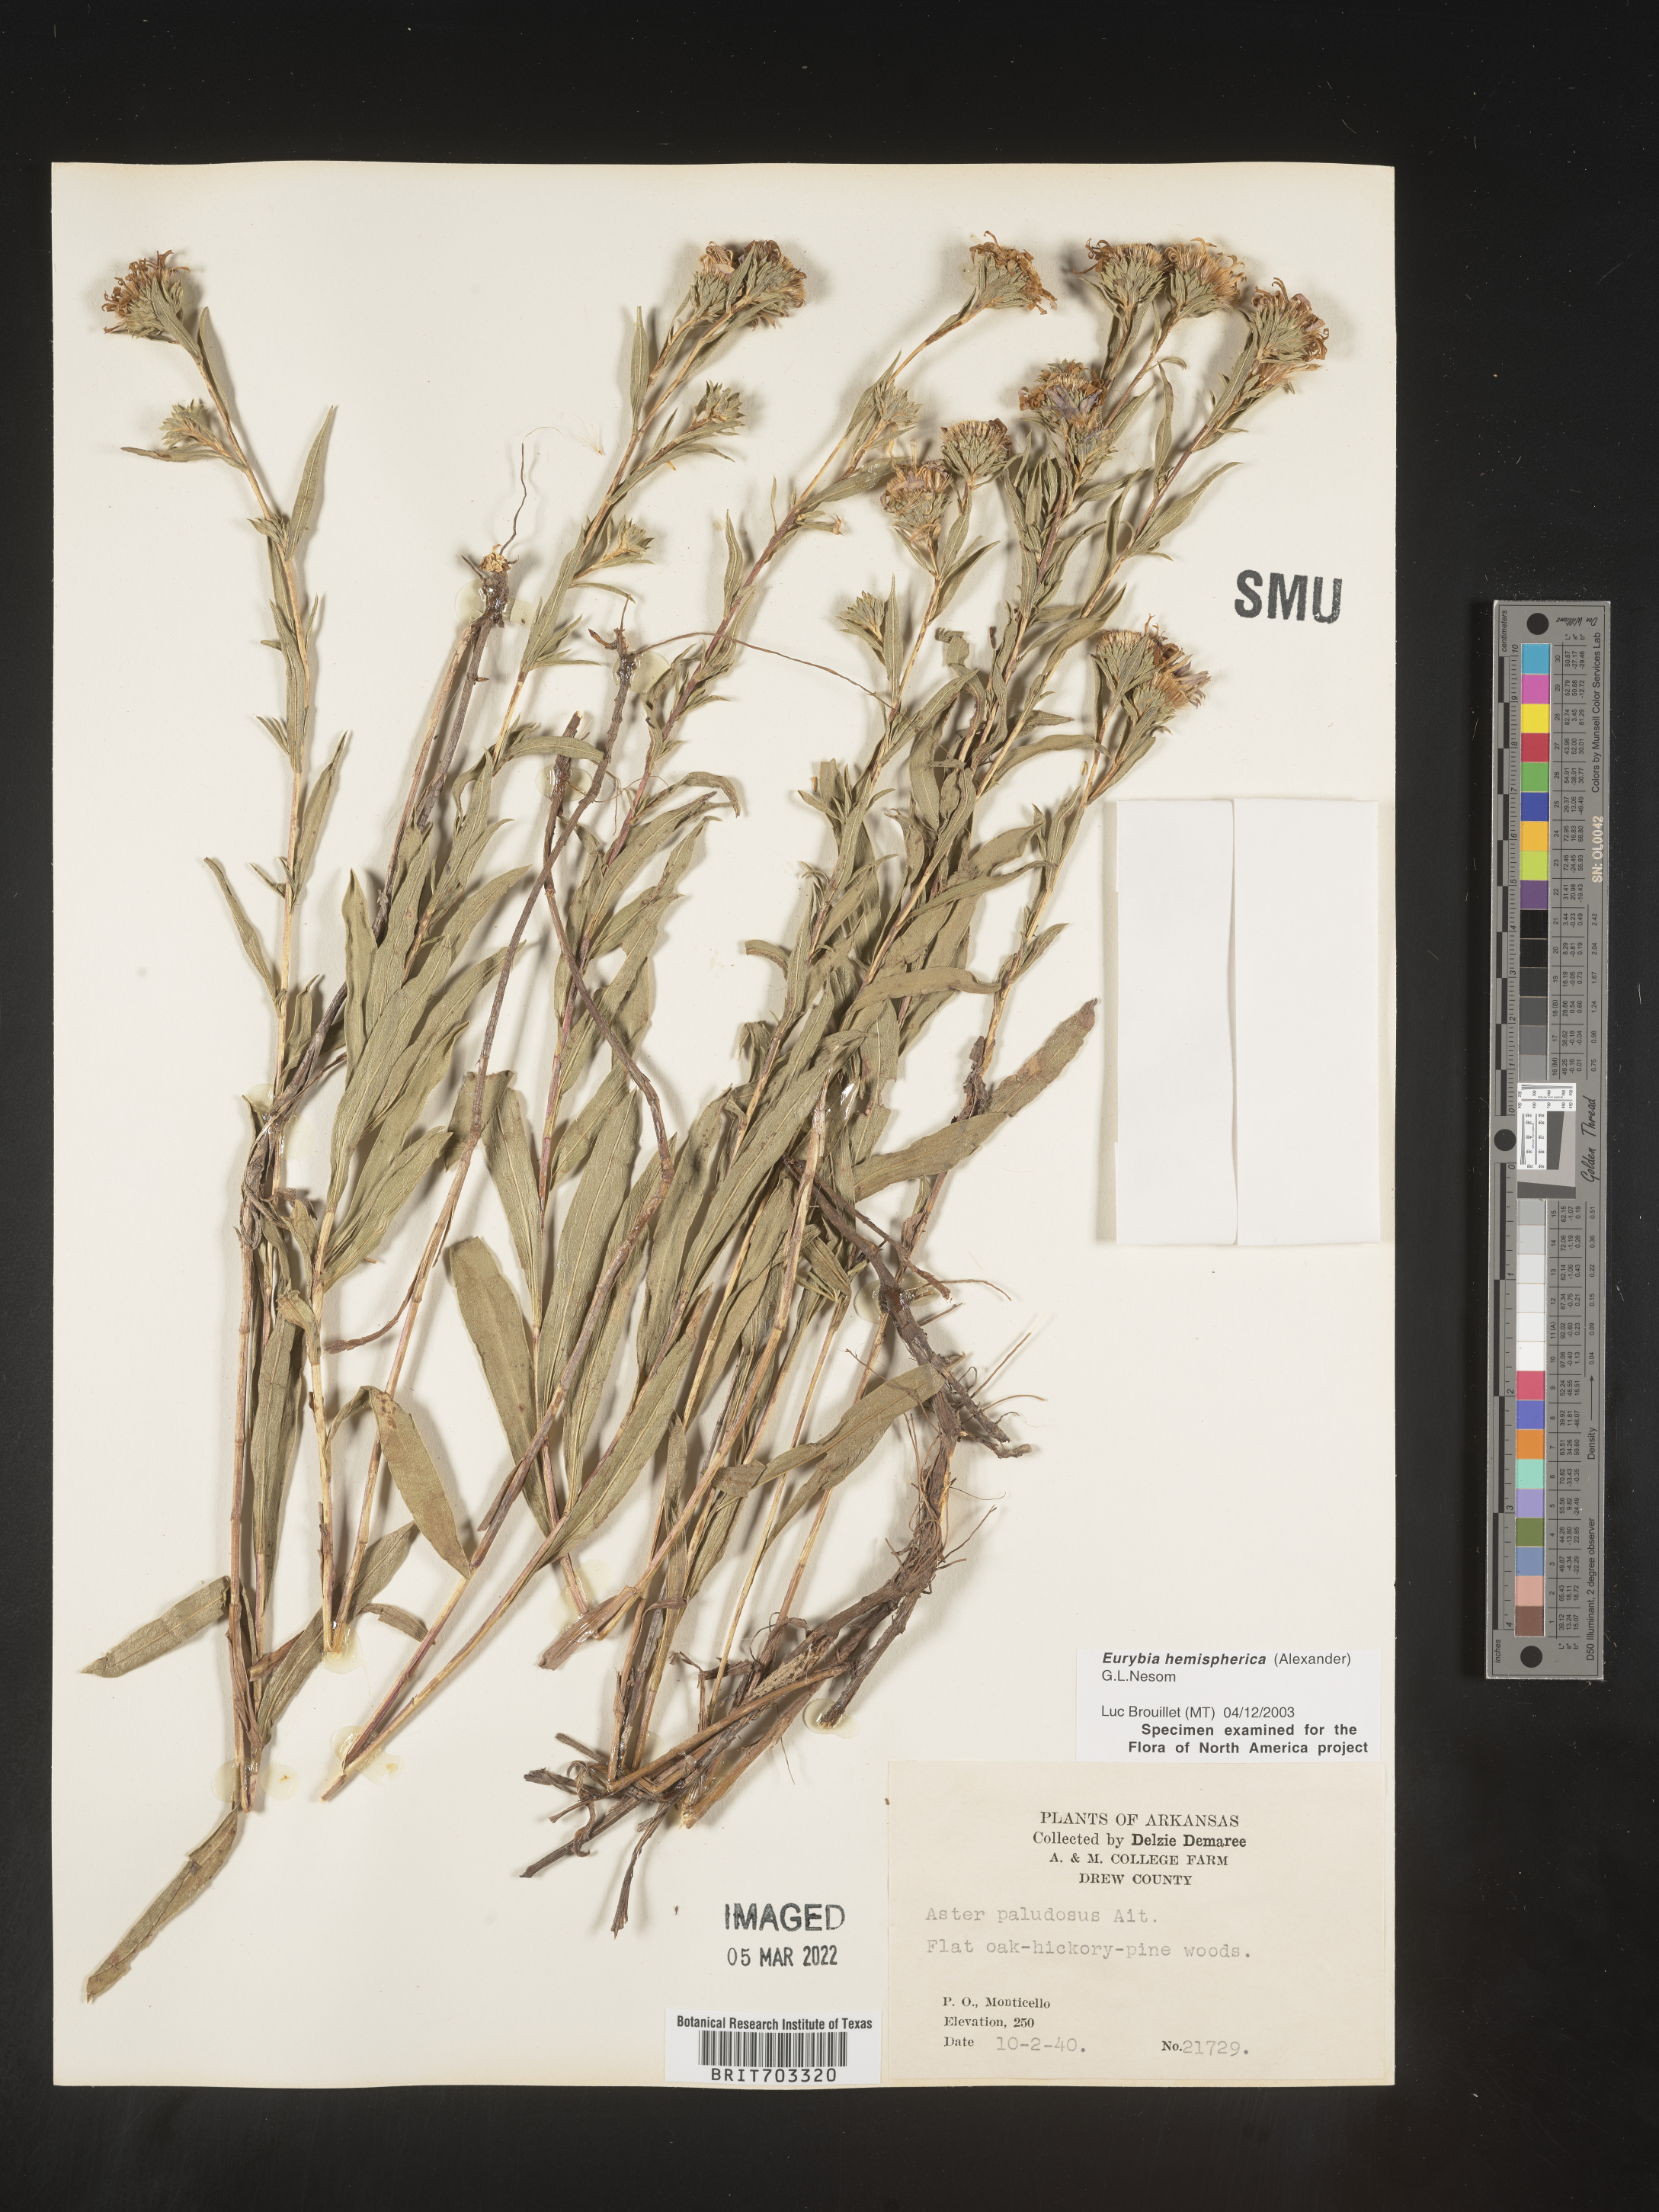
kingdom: Plantae
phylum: Tracheophyta
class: Magnoliopsida
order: Asterales
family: Asteraceae
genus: Eurybia
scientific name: Eurybia hemispherica
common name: Showy aster
